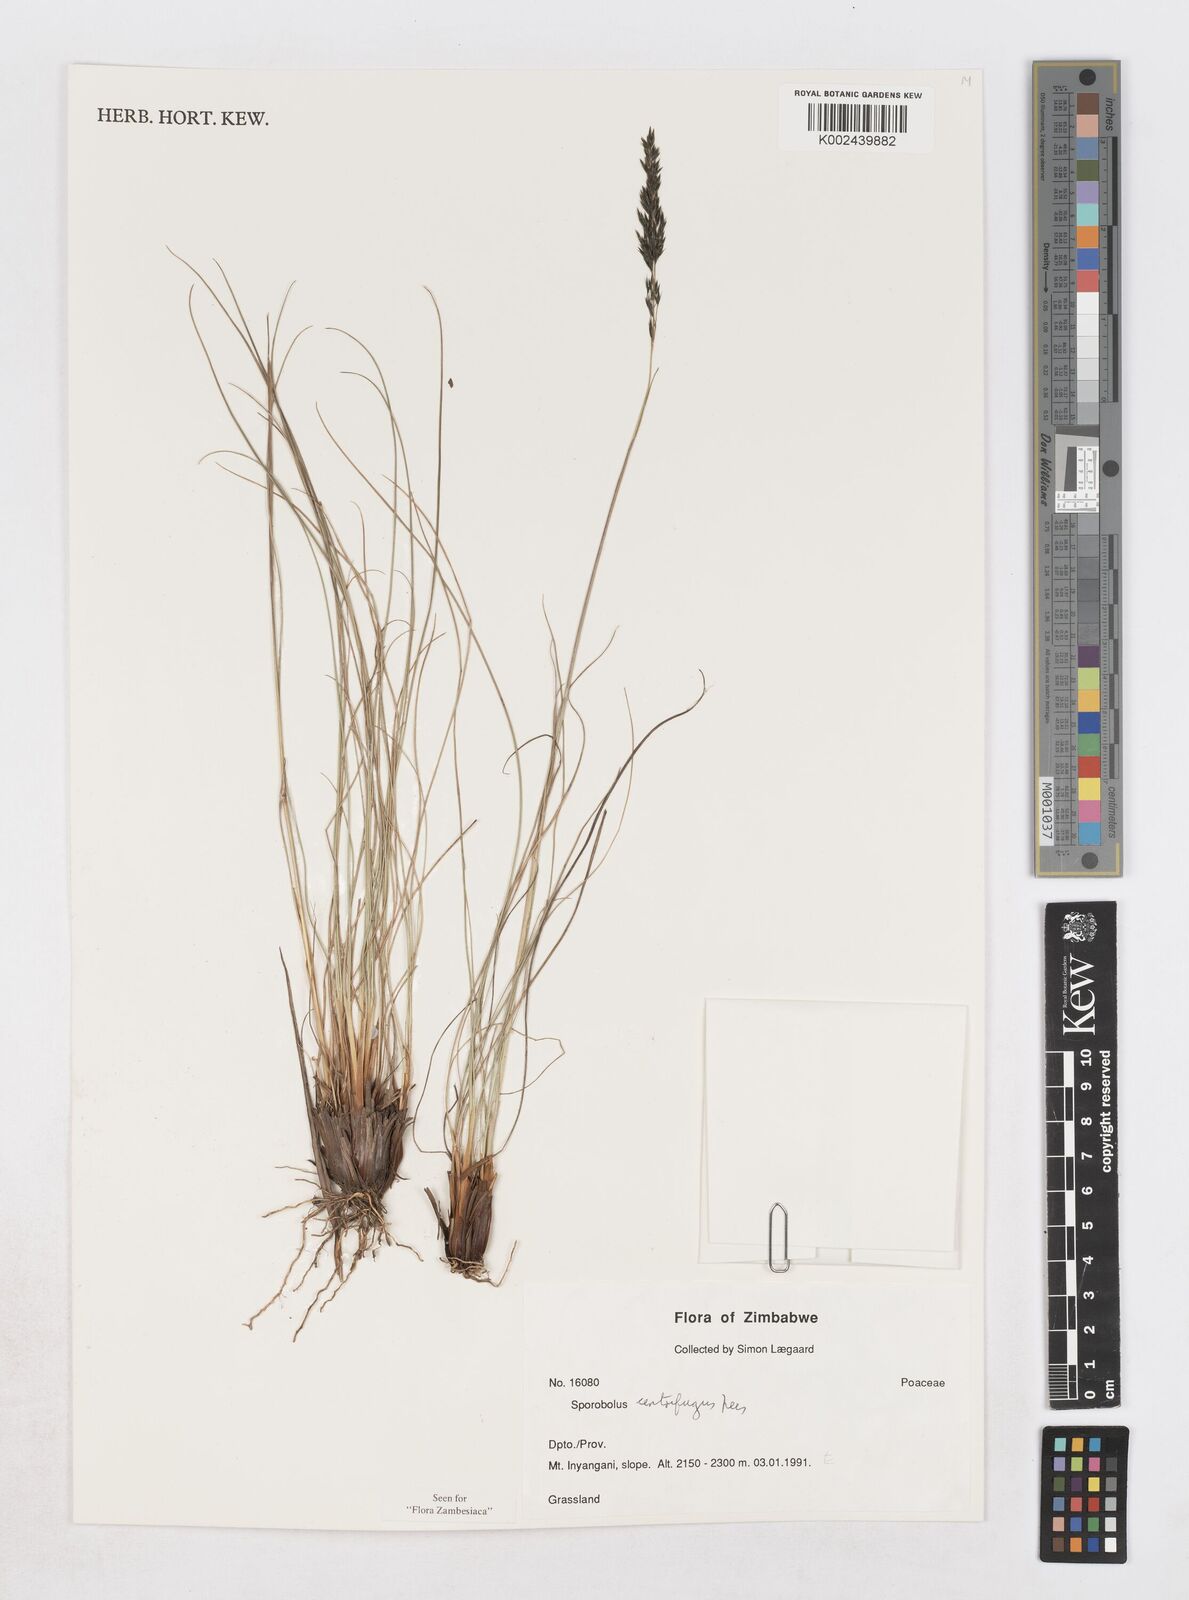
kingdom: Plantae
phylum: Tracheophyta
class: Liliopsida
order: Poales
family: Poaceae
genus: Sporobolus
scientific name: Sporobolus centrifugus
